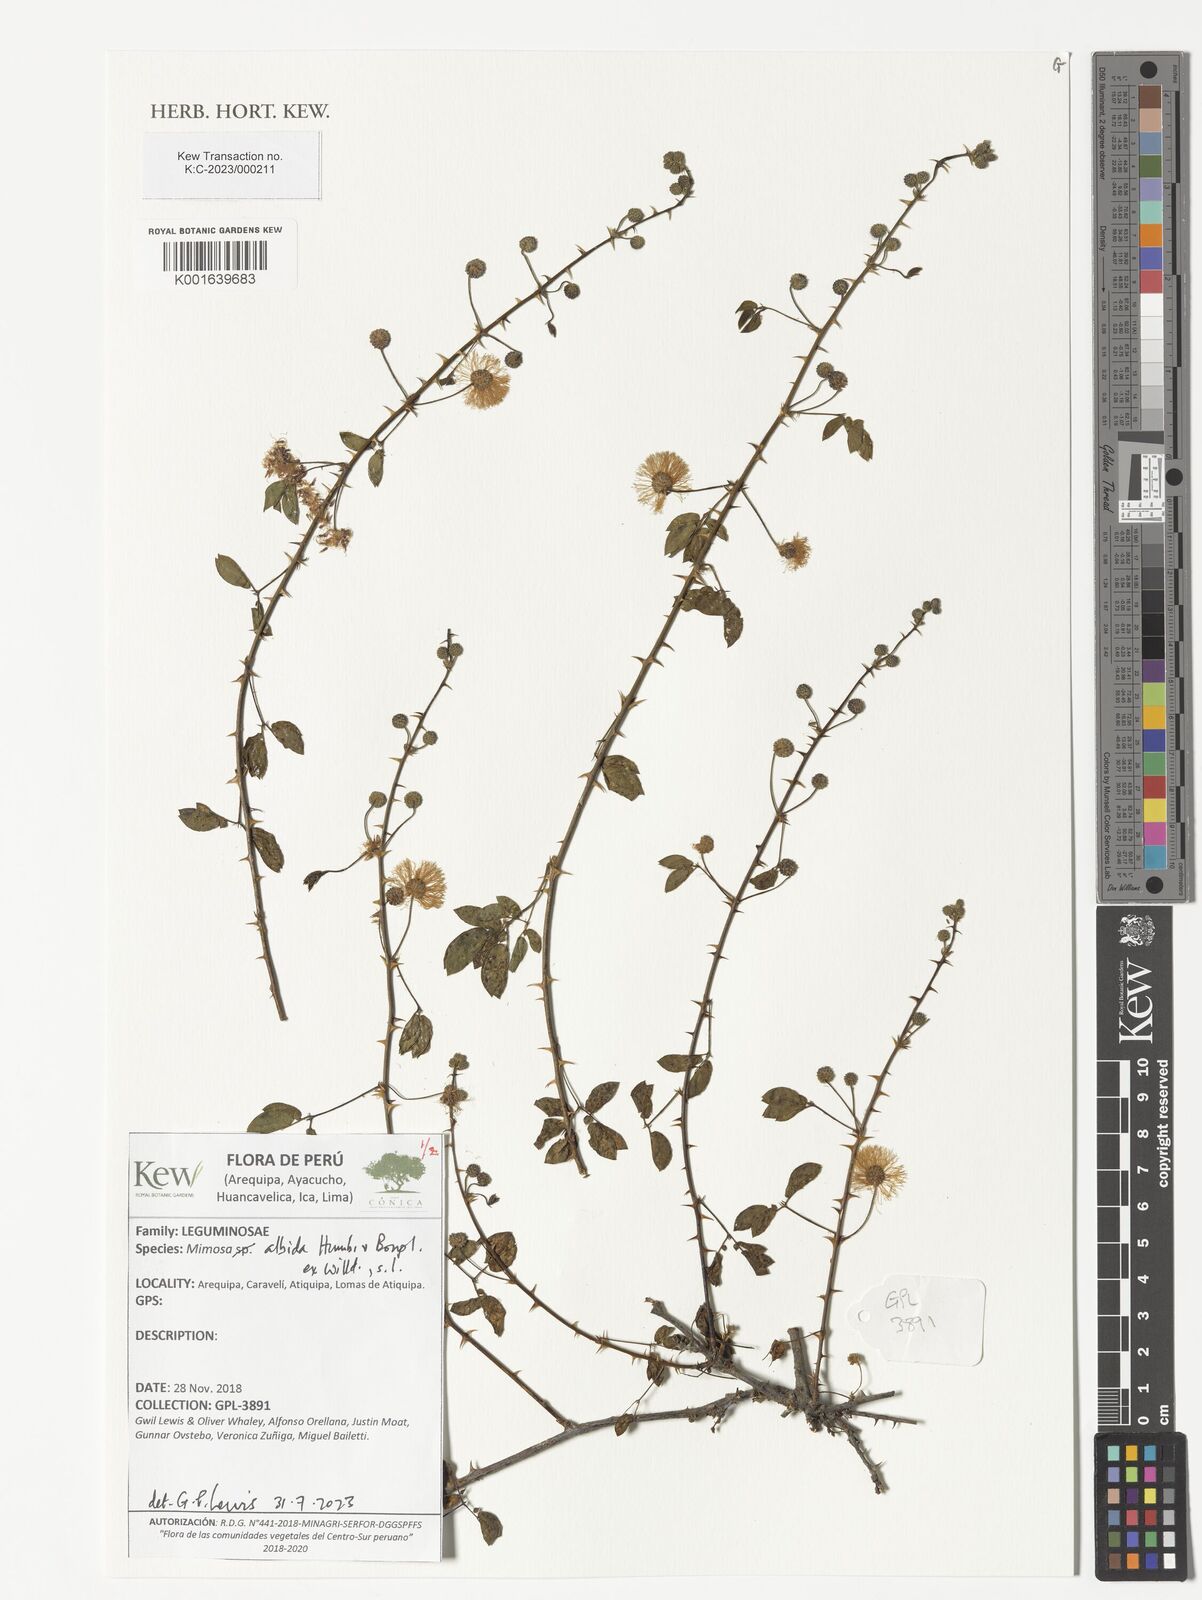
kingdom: Plantae
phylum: Tracheophyta
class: Magnoliopsida
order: Fabales
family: Fabaceae
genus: Mimosa
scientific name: Mimosa albida
